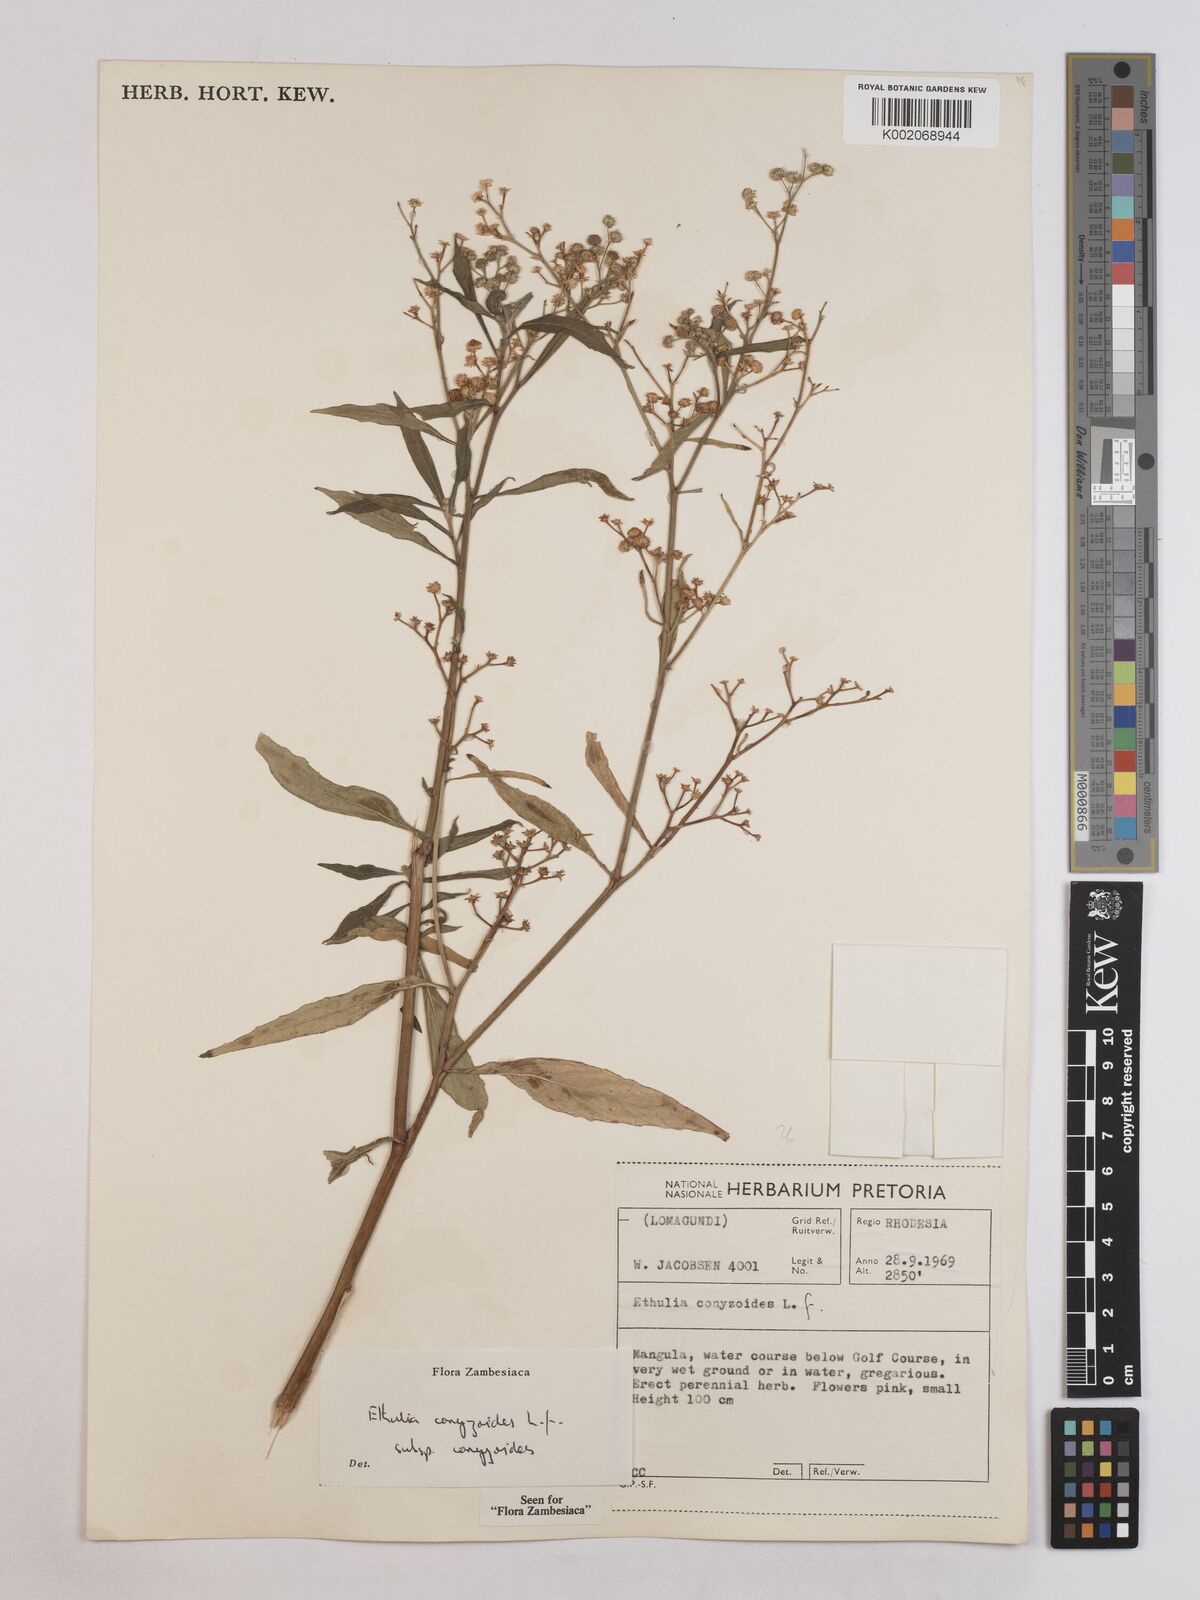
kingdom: Plantae
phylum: Tracheophyta
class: Magnoliopsida
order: Asterales
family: Asteraceae
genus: Ethulia
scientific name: Ethulia conyzoides
